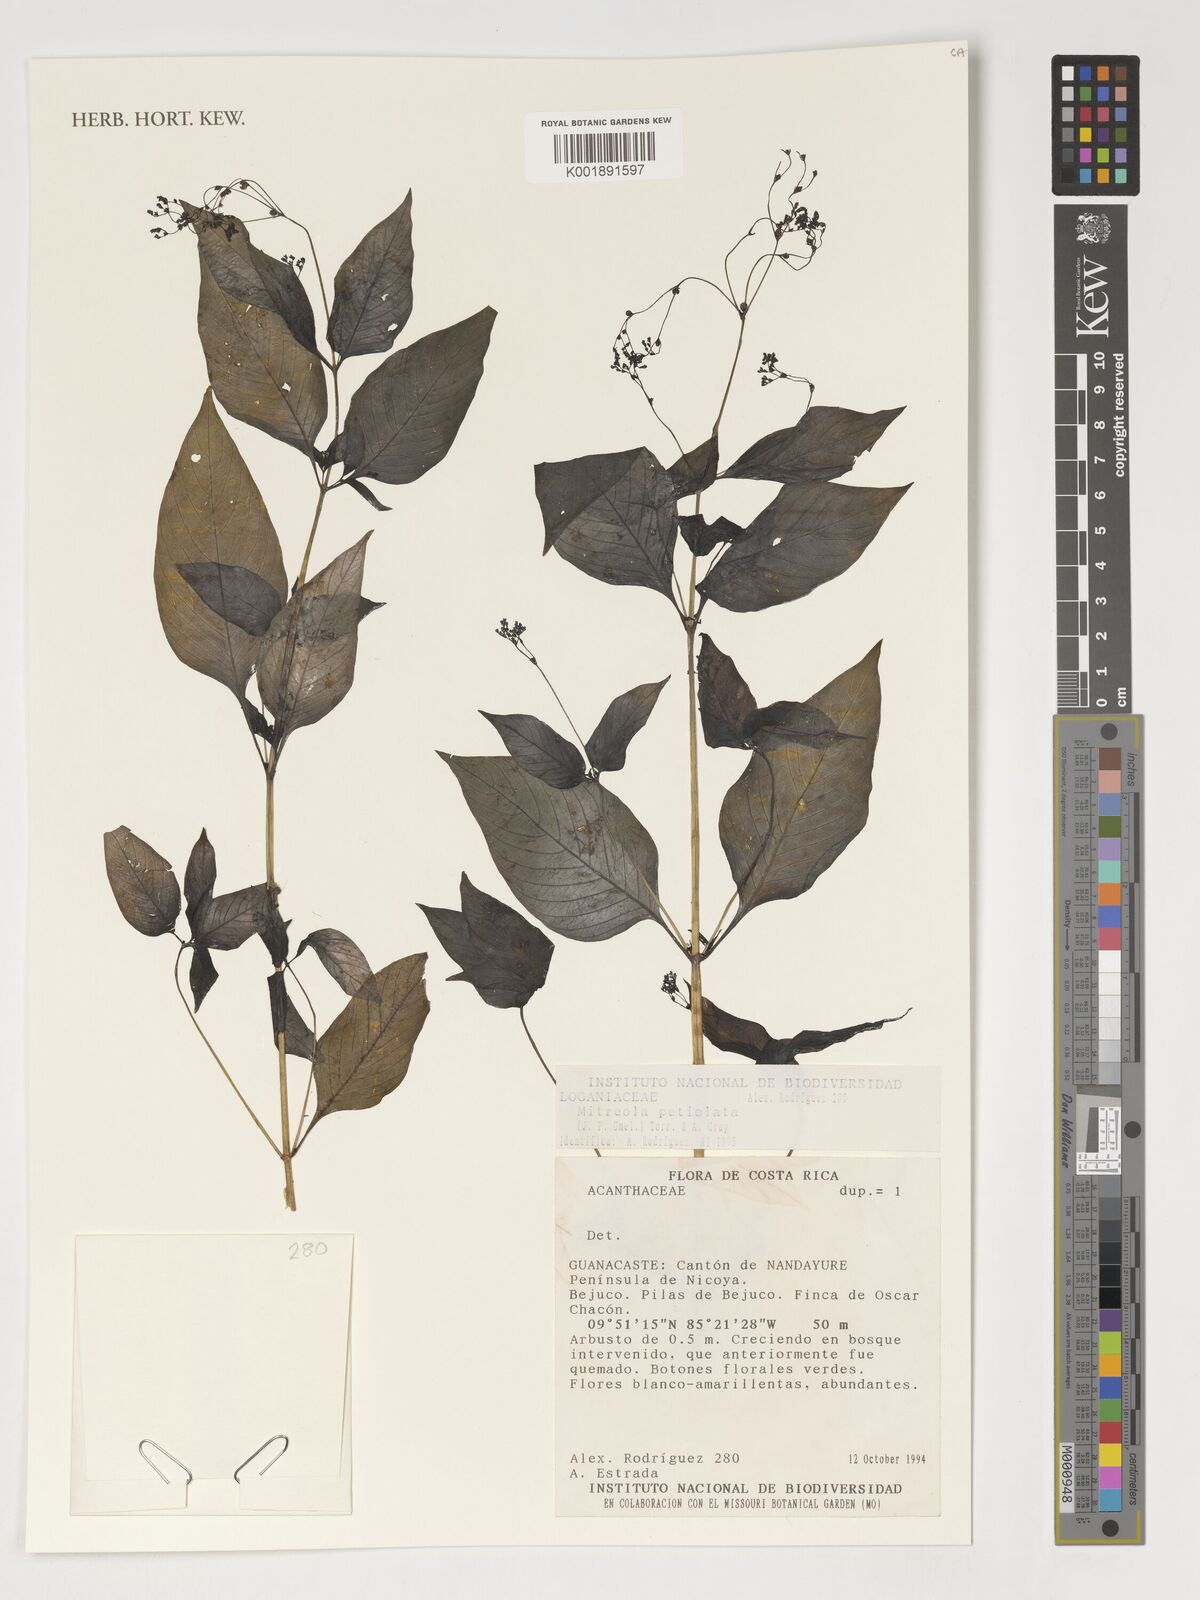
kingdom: Plantae
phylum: Tracheophyta
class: Magnoliopsida
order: Gentianales
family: Loganiaceae
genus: Mitreola
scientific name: Mitreola petiolata
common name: Lax hornpod
